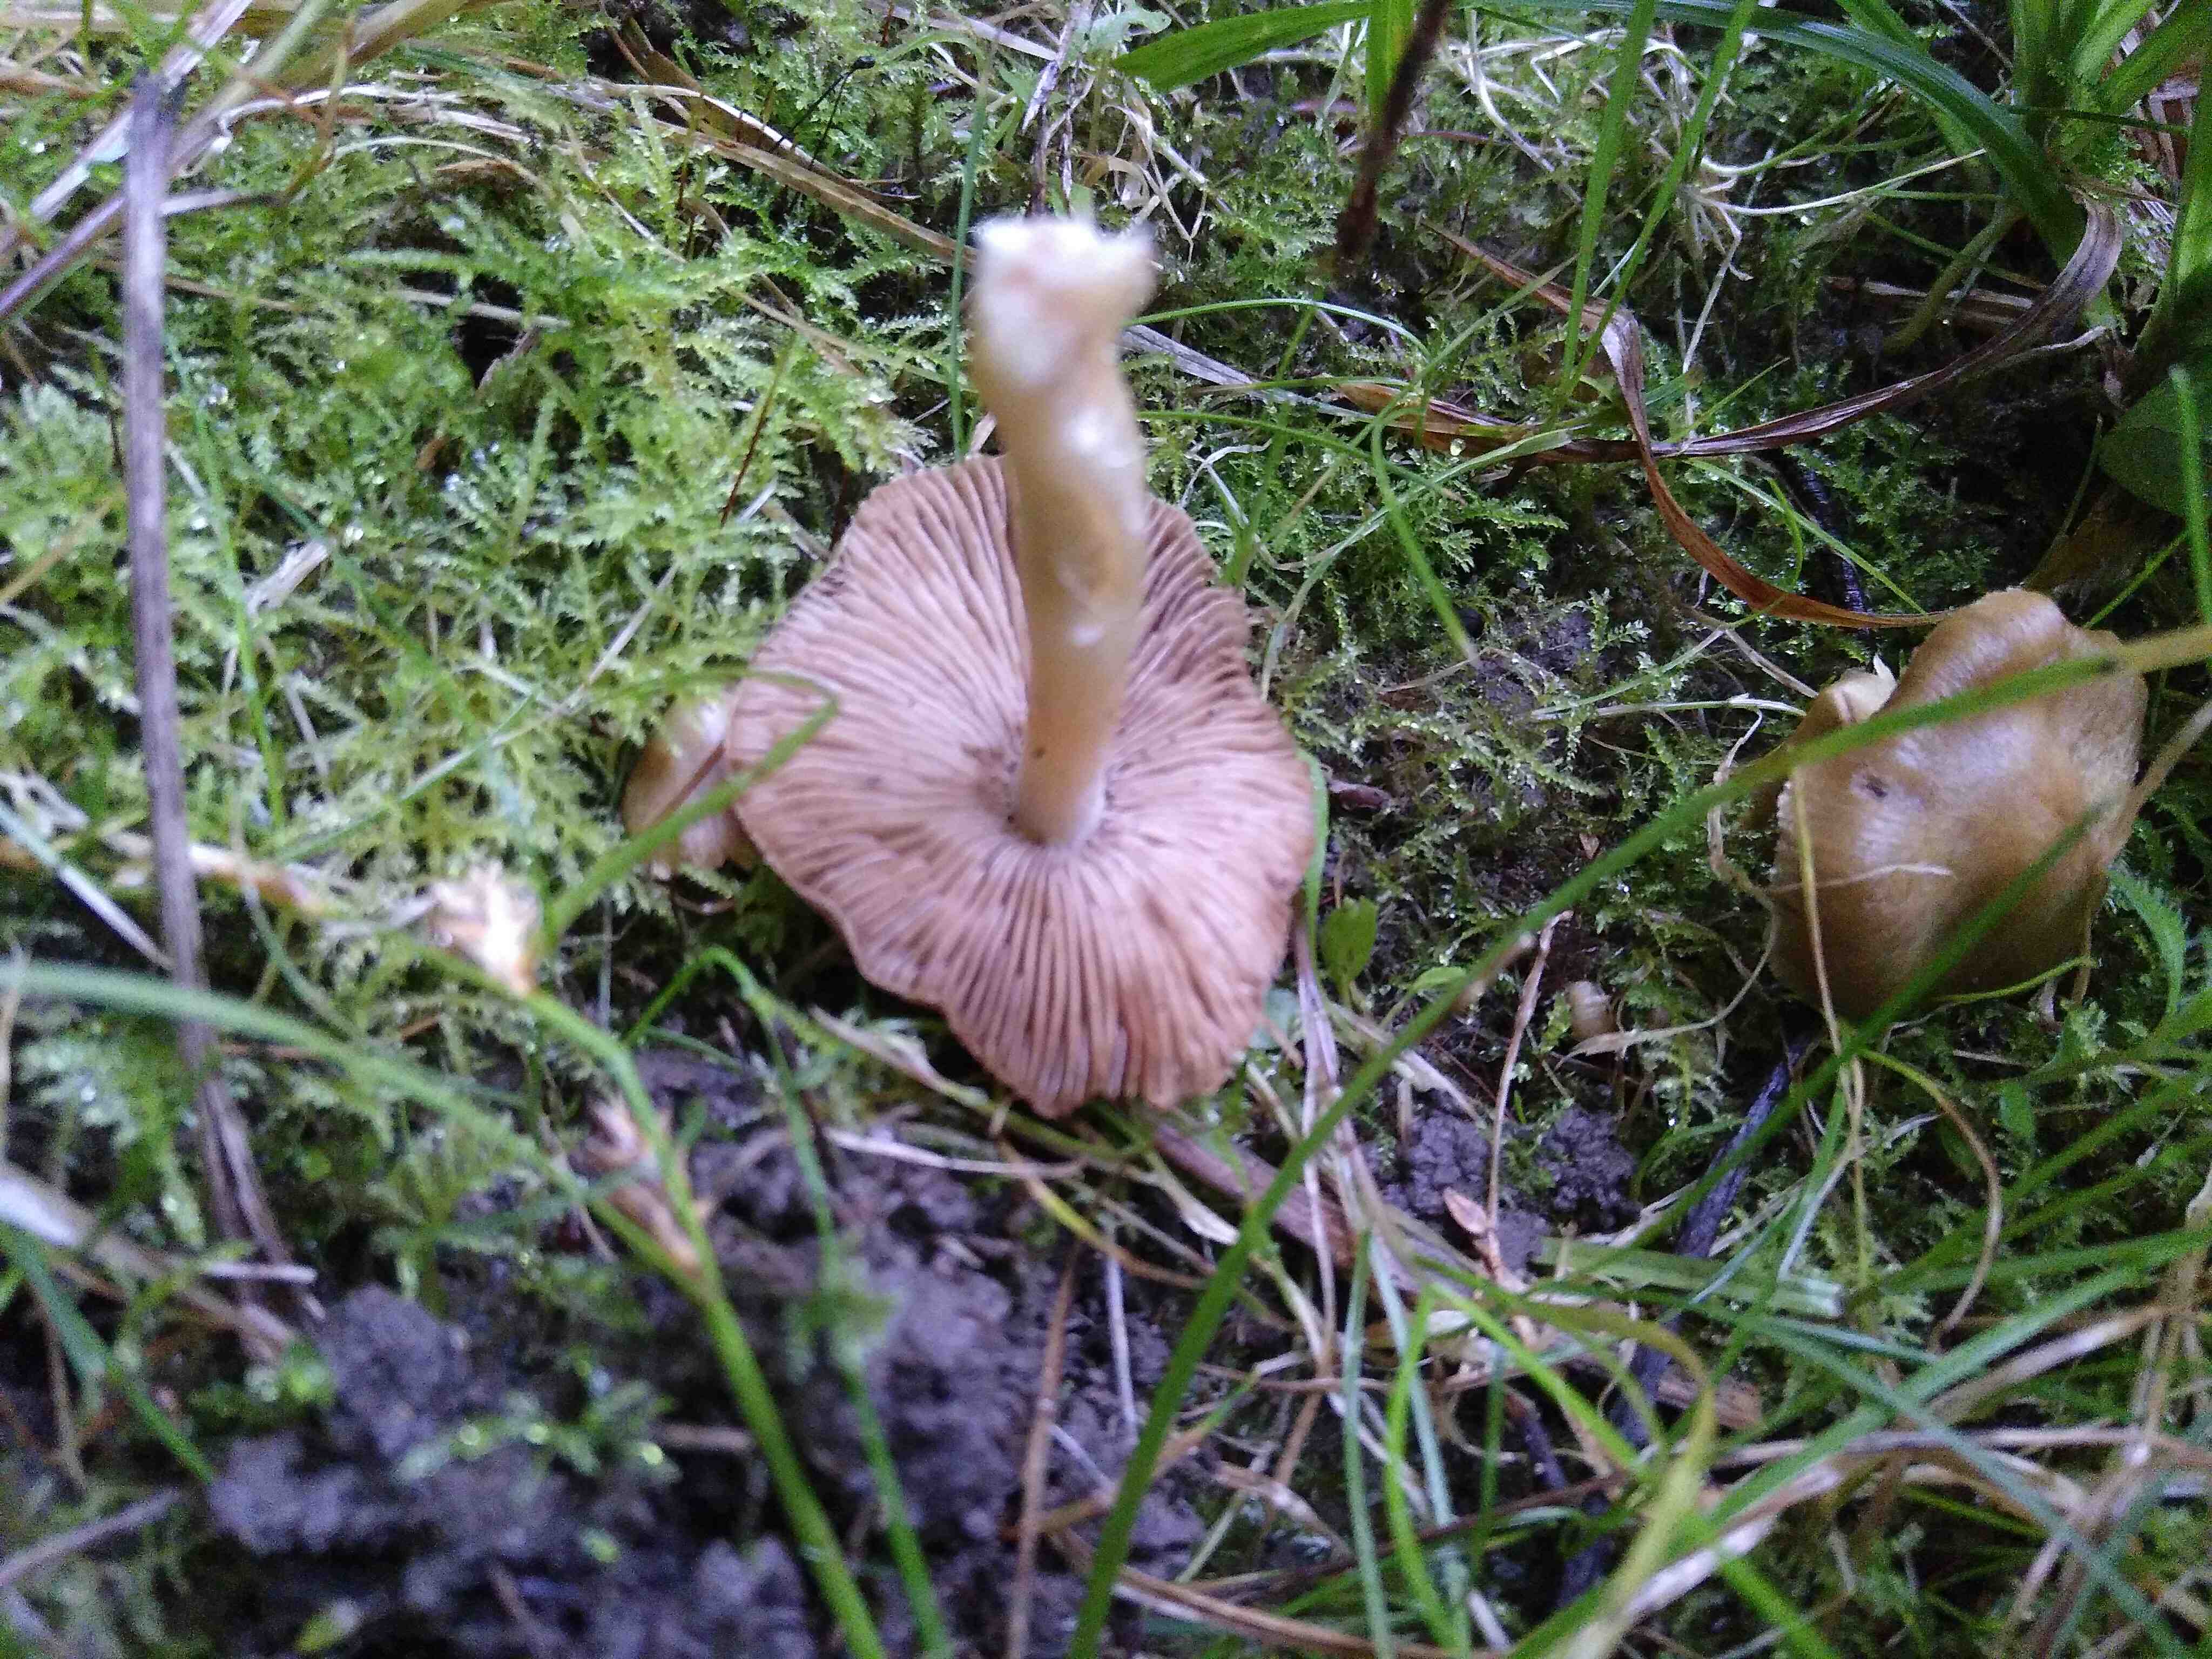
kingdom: Fungi
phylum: Basidiomycota
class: Agaricomycetes
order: Agaricales
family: Cortinariaceae
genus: Cortinarius
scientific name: Cortinarius
